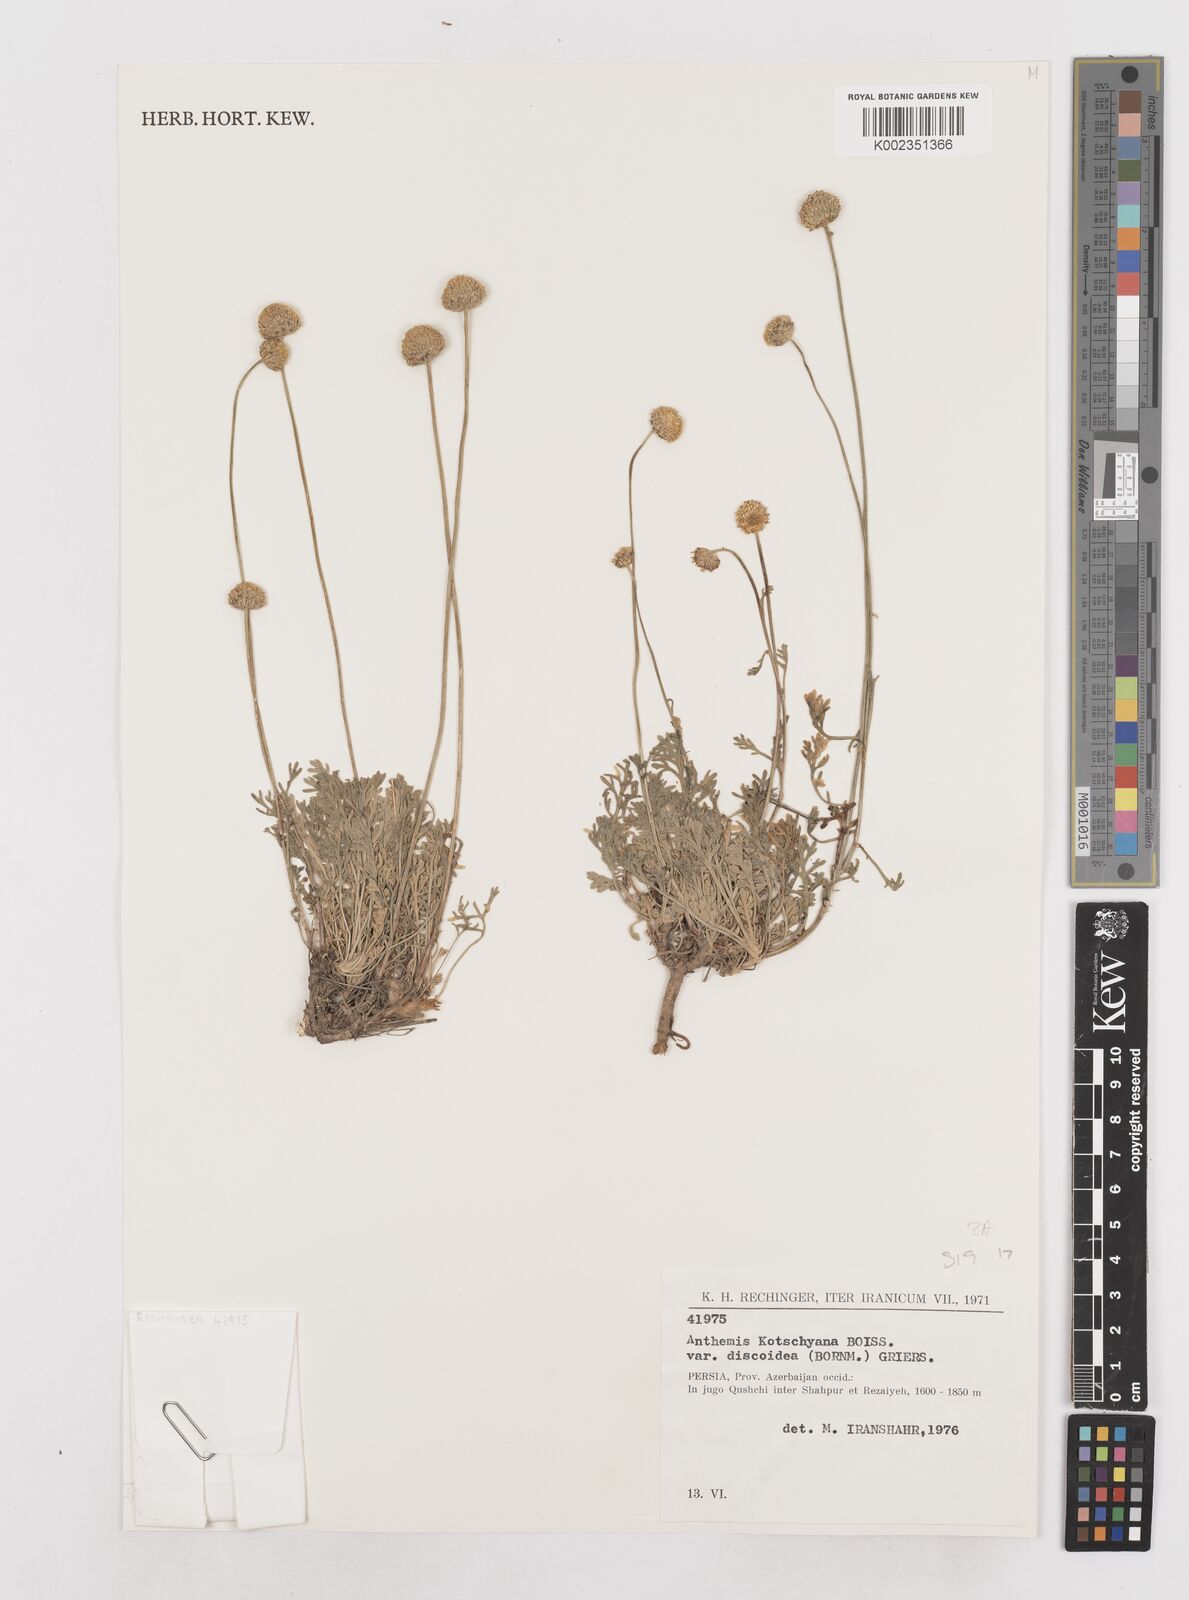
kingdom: Plantae
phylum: Tracheophyta
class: Magnoliopsida
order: Asterales
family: Asteraceae
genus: Anthemis
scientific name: Anthemis kotschyana
